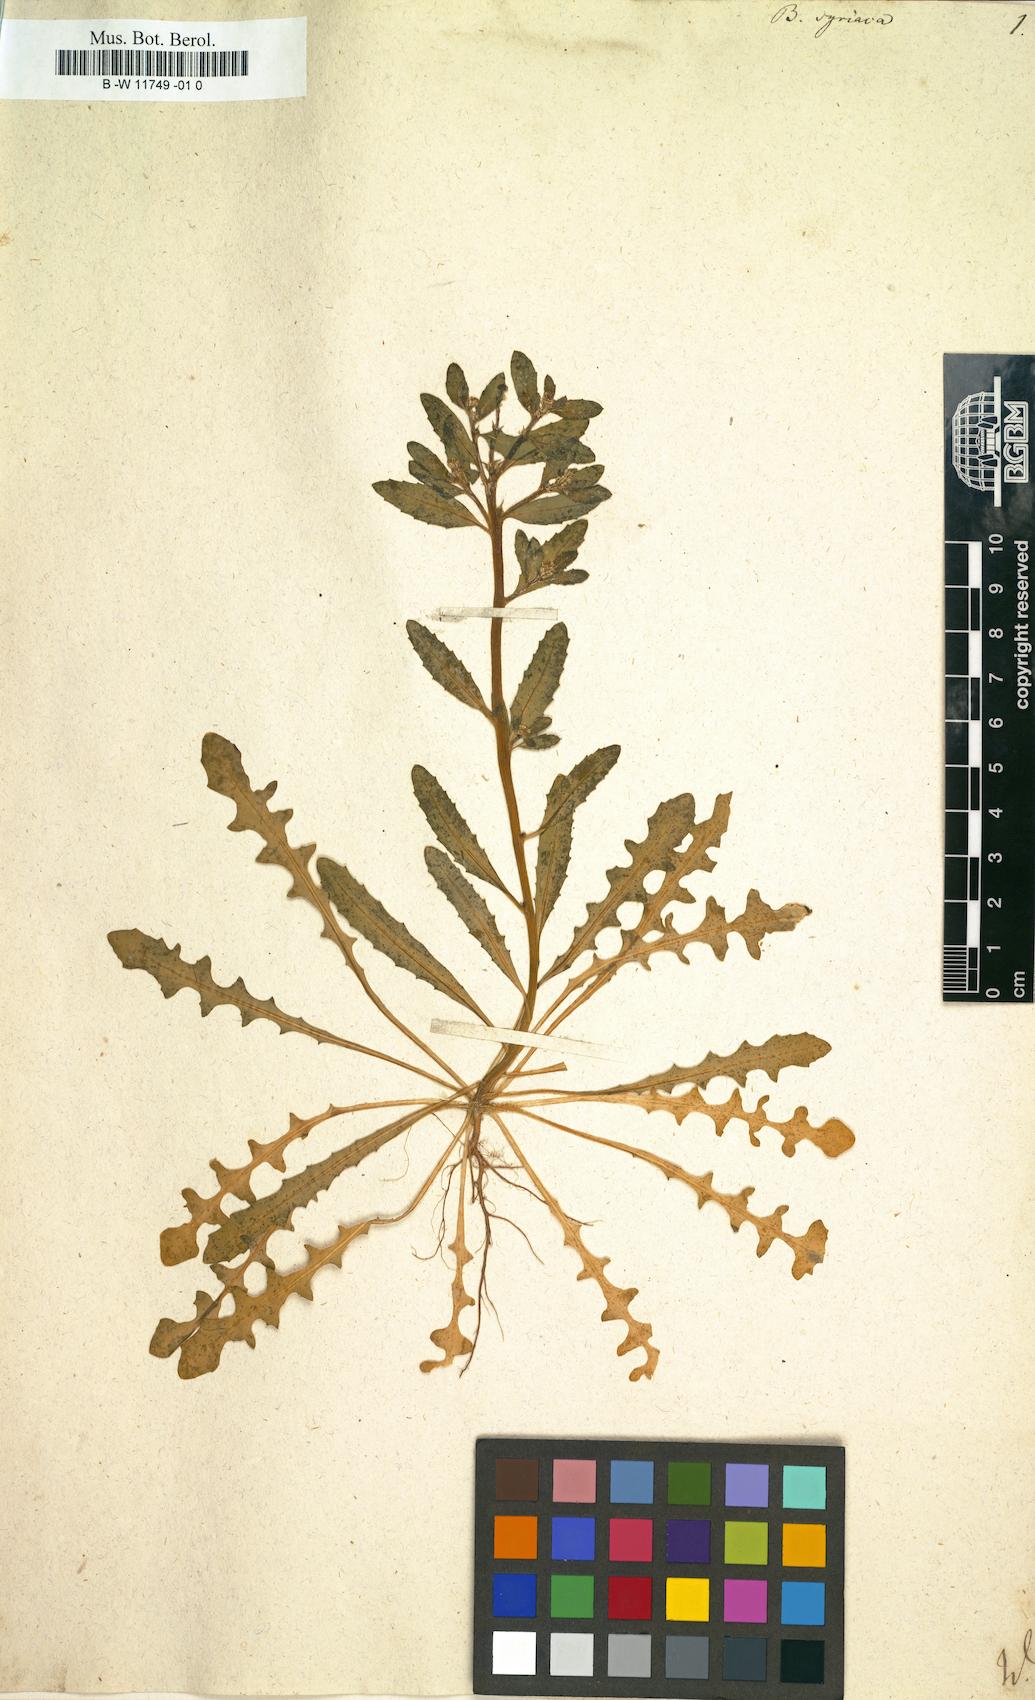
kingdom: Plantae
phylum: Tracheophyta
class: Magnoliopsida
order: Brassicales
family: Brassicaceae
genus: Euclidium
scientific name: Euclidium syriacum
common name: Syrian mustard
